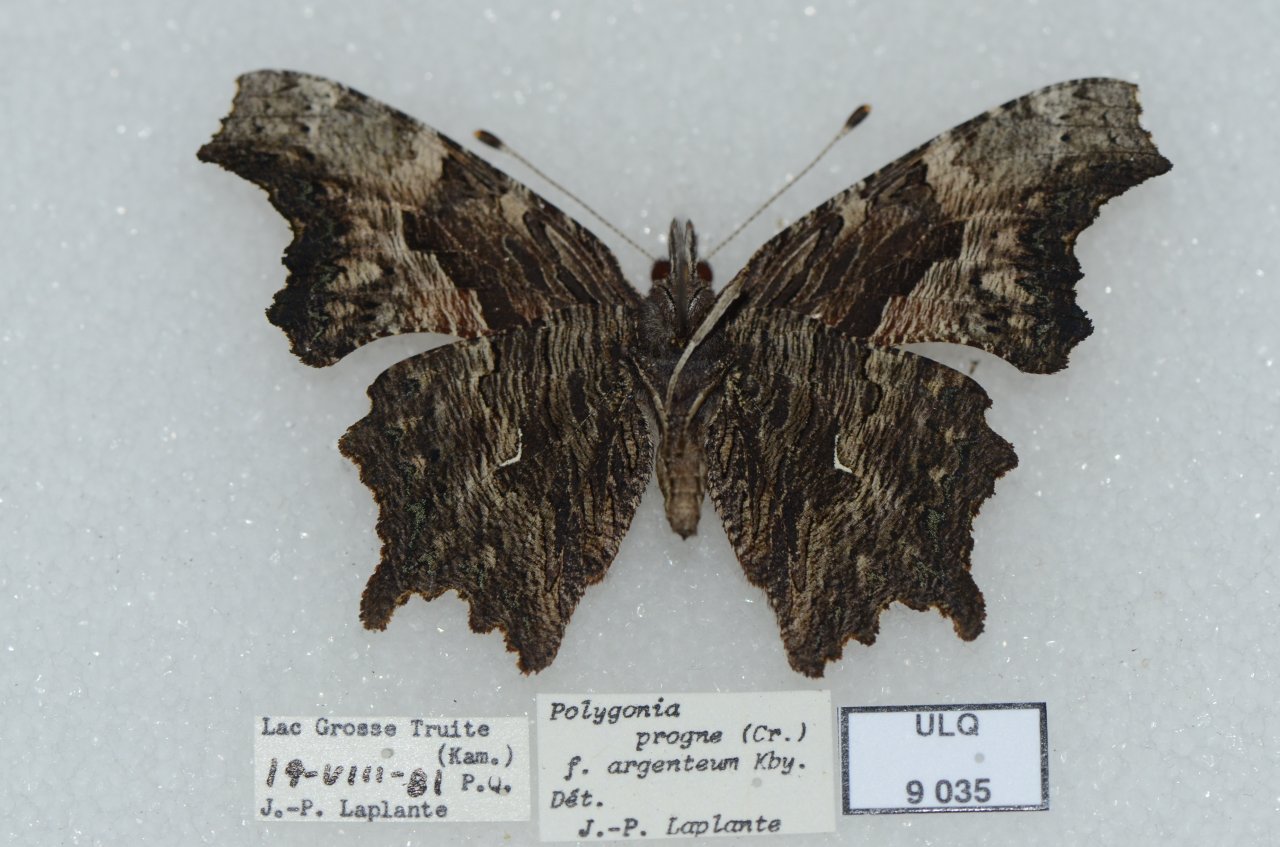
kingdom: Animalia
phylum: Arthropoda
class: Insecta
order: Lepidoptera
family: Nymphalidae
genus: Polygonia
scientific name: Polygonia progne
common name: Gray Comma
